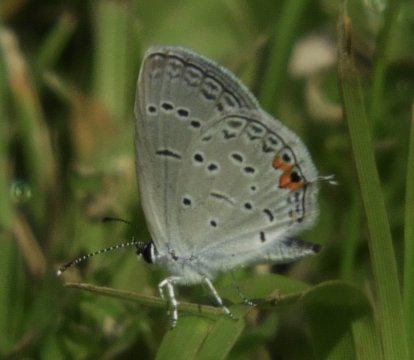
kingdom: Animalia
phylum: Arthropoda
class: Insecta
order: Lepidoptera
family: Lycaenidae
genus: Elkalyce
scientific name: Elkalyce comyntas
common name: Eastern Tailed-Blue
